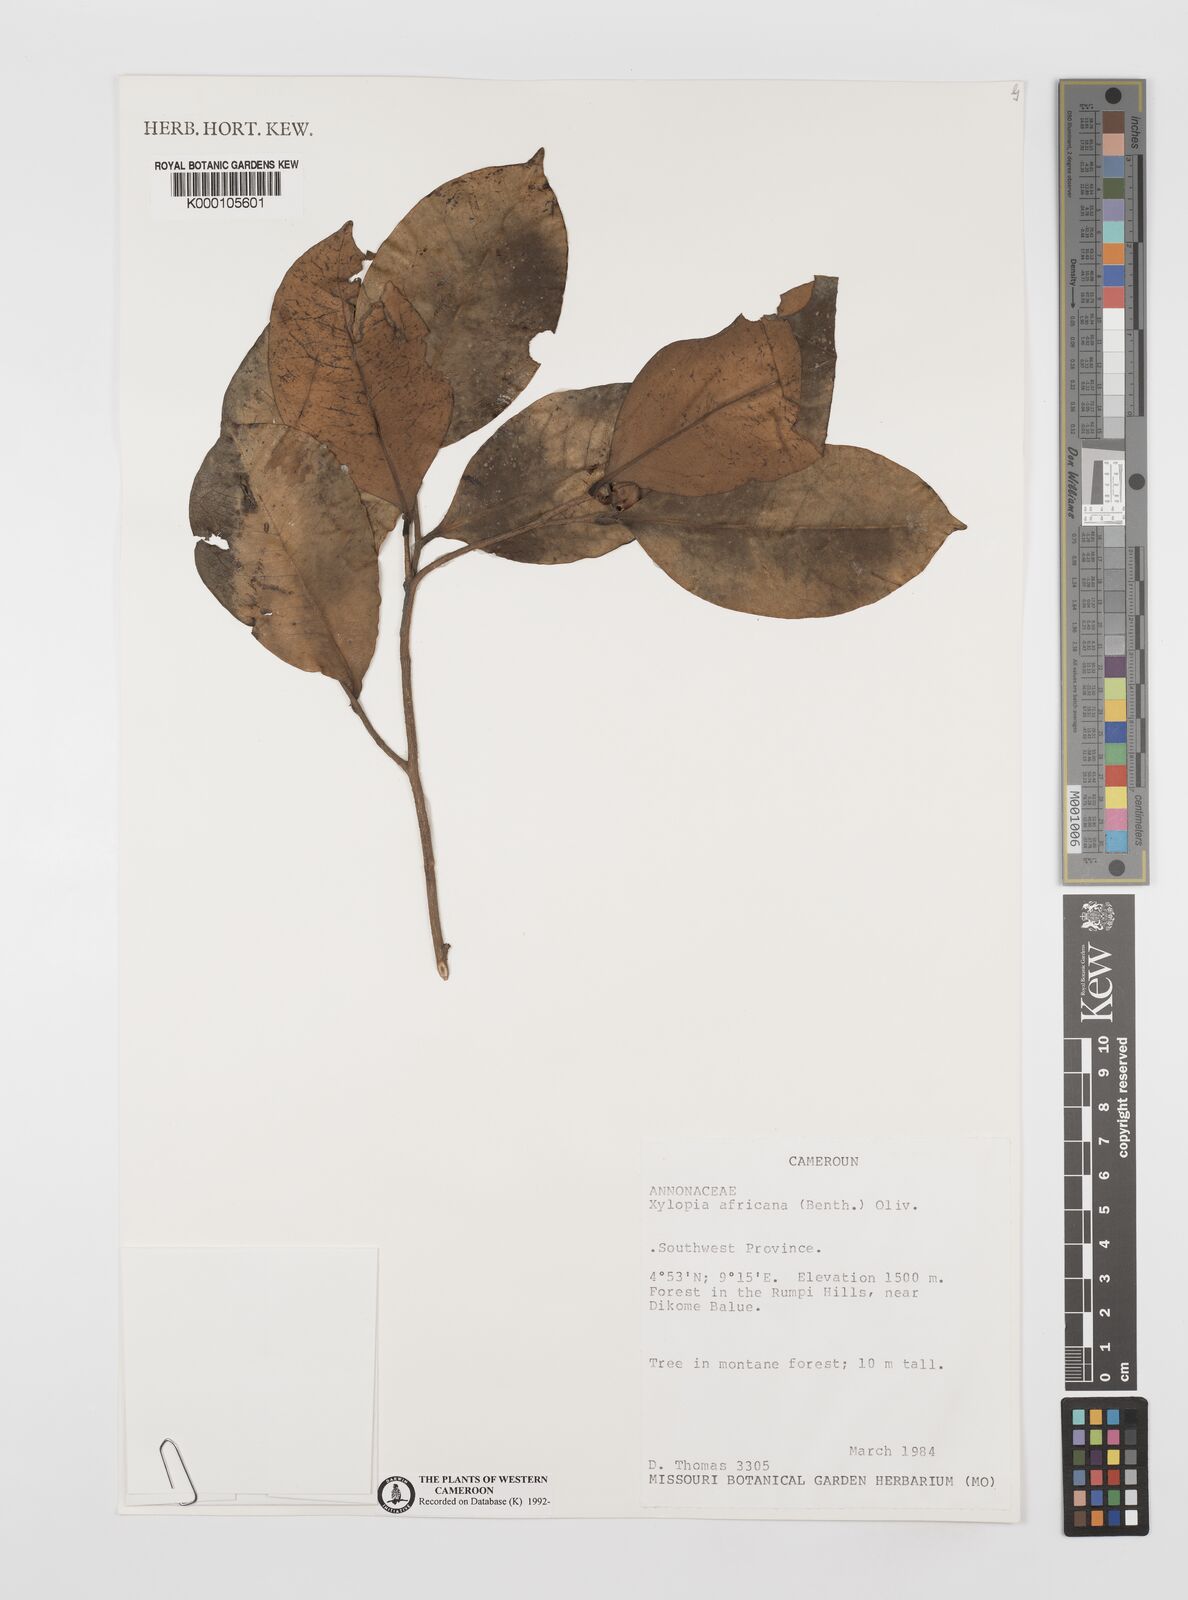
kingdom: Plantae
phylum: Tracheophyta
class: Magnoliopsida
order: Magnoliales
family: Annonaceae
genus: Xylopia
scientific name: Xylopia africana
